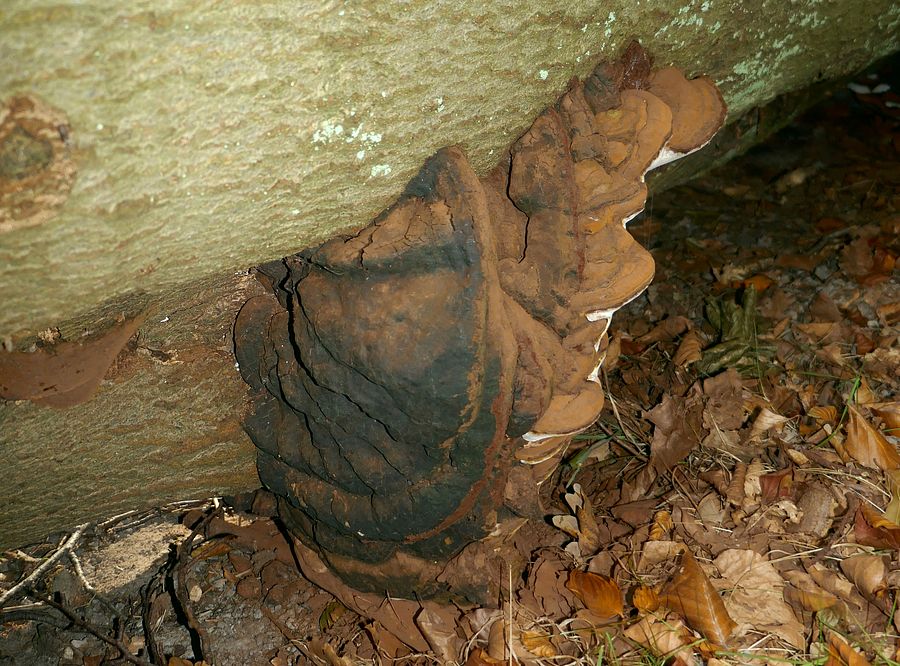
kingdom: Fungi
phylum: Basidiomycota
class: Agaricomycetes
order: Polyporales
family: Polyporaceae
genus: Ganoderma
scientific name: Ganoderma adspersum
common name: grov lakporesvamp
